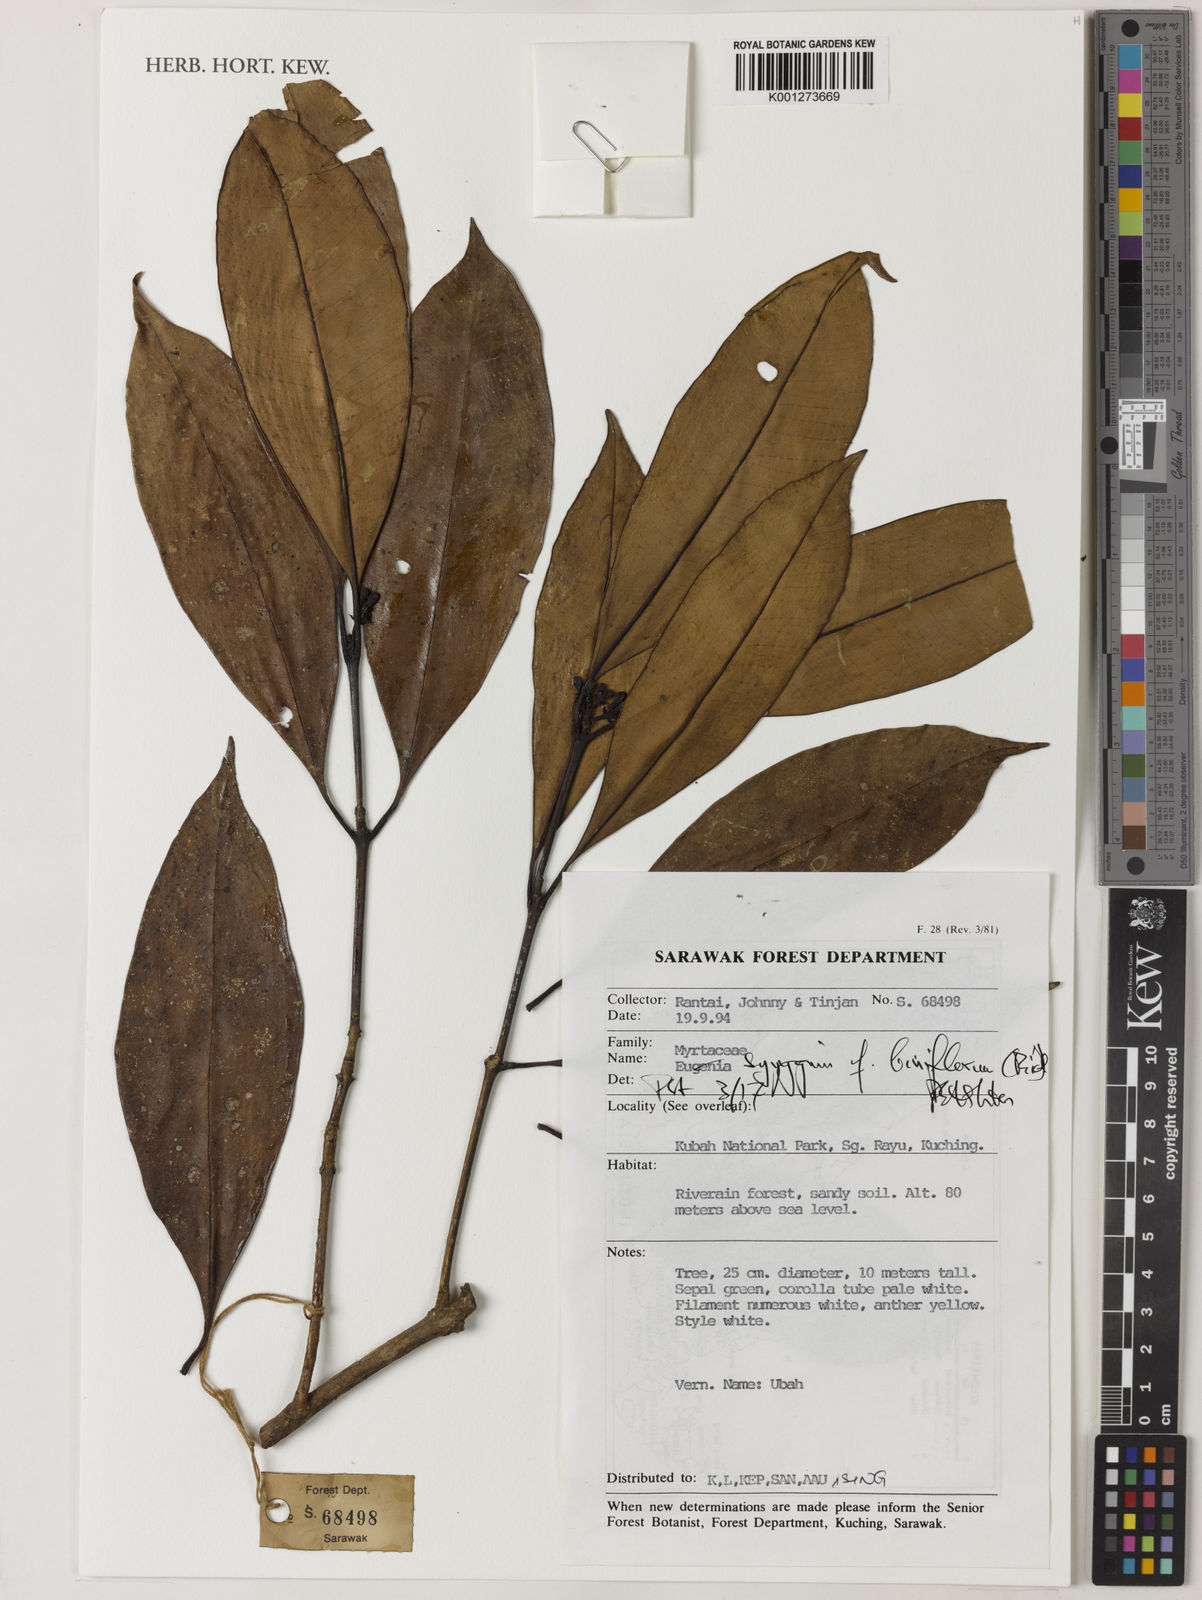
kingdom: Plantae
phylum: Tracheophyta
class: Magnoliopsida
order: Myrtales
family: Myrtaceae
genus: Syzygium
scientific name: Syzygium biniflorum
